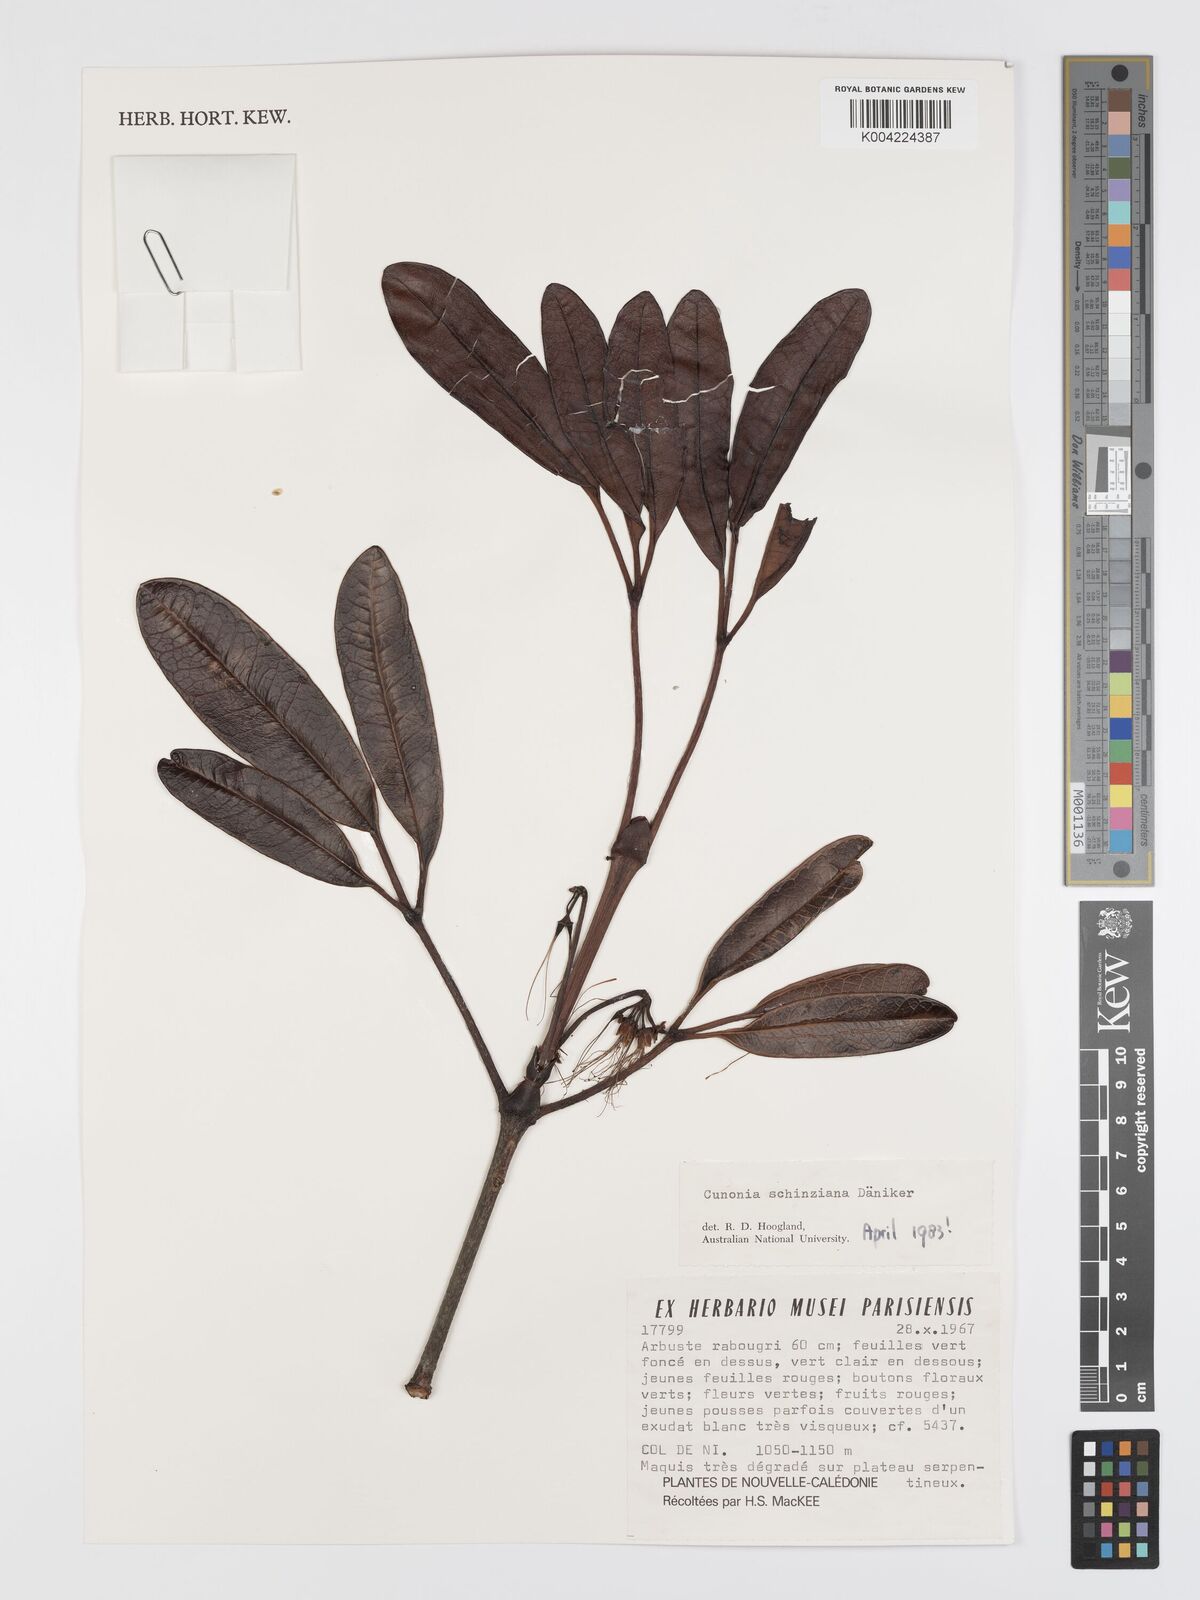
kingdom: Plantae
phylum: Tracheophyta
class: Magnoliopsida
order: Oxalidales
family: Cunoniaceae
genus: Cunonia
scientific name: Cunonia schinziana
